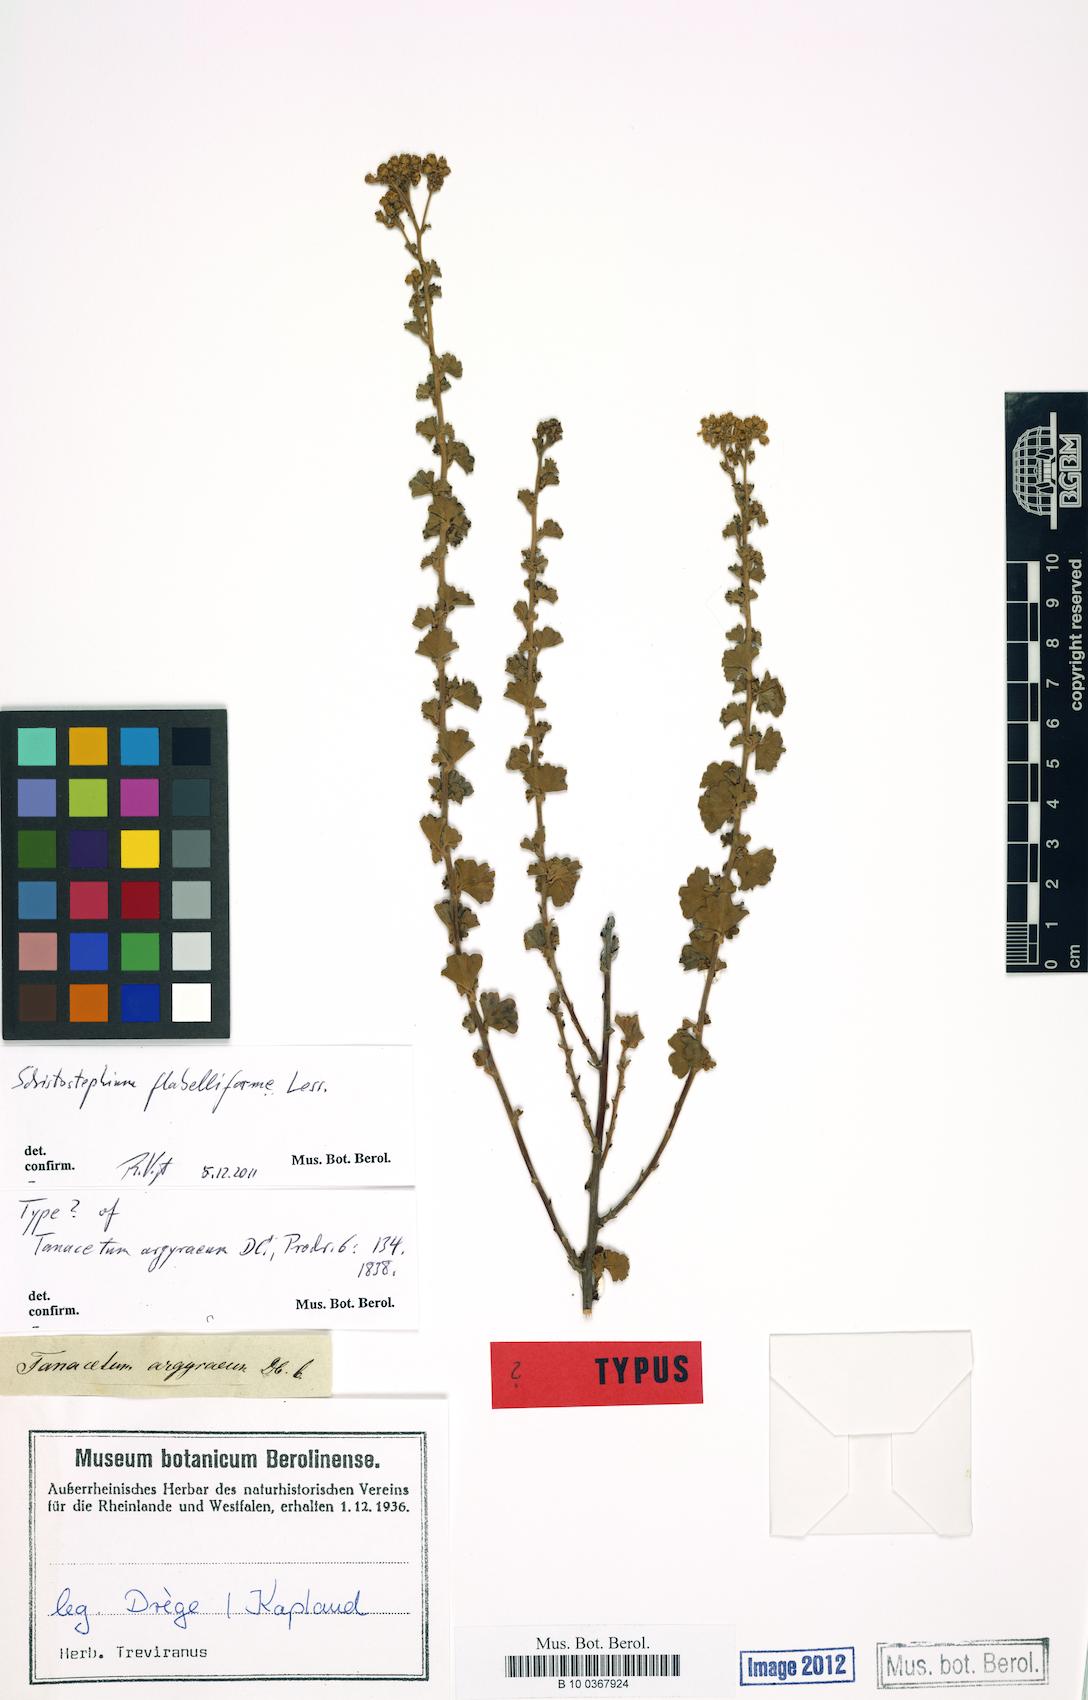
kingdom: Plantae
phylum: Tracheophyta
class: Magnoliopsida
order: Asterales
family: Asteraceae
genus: Schistostephium
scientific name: Schistostephium flabelliforme
